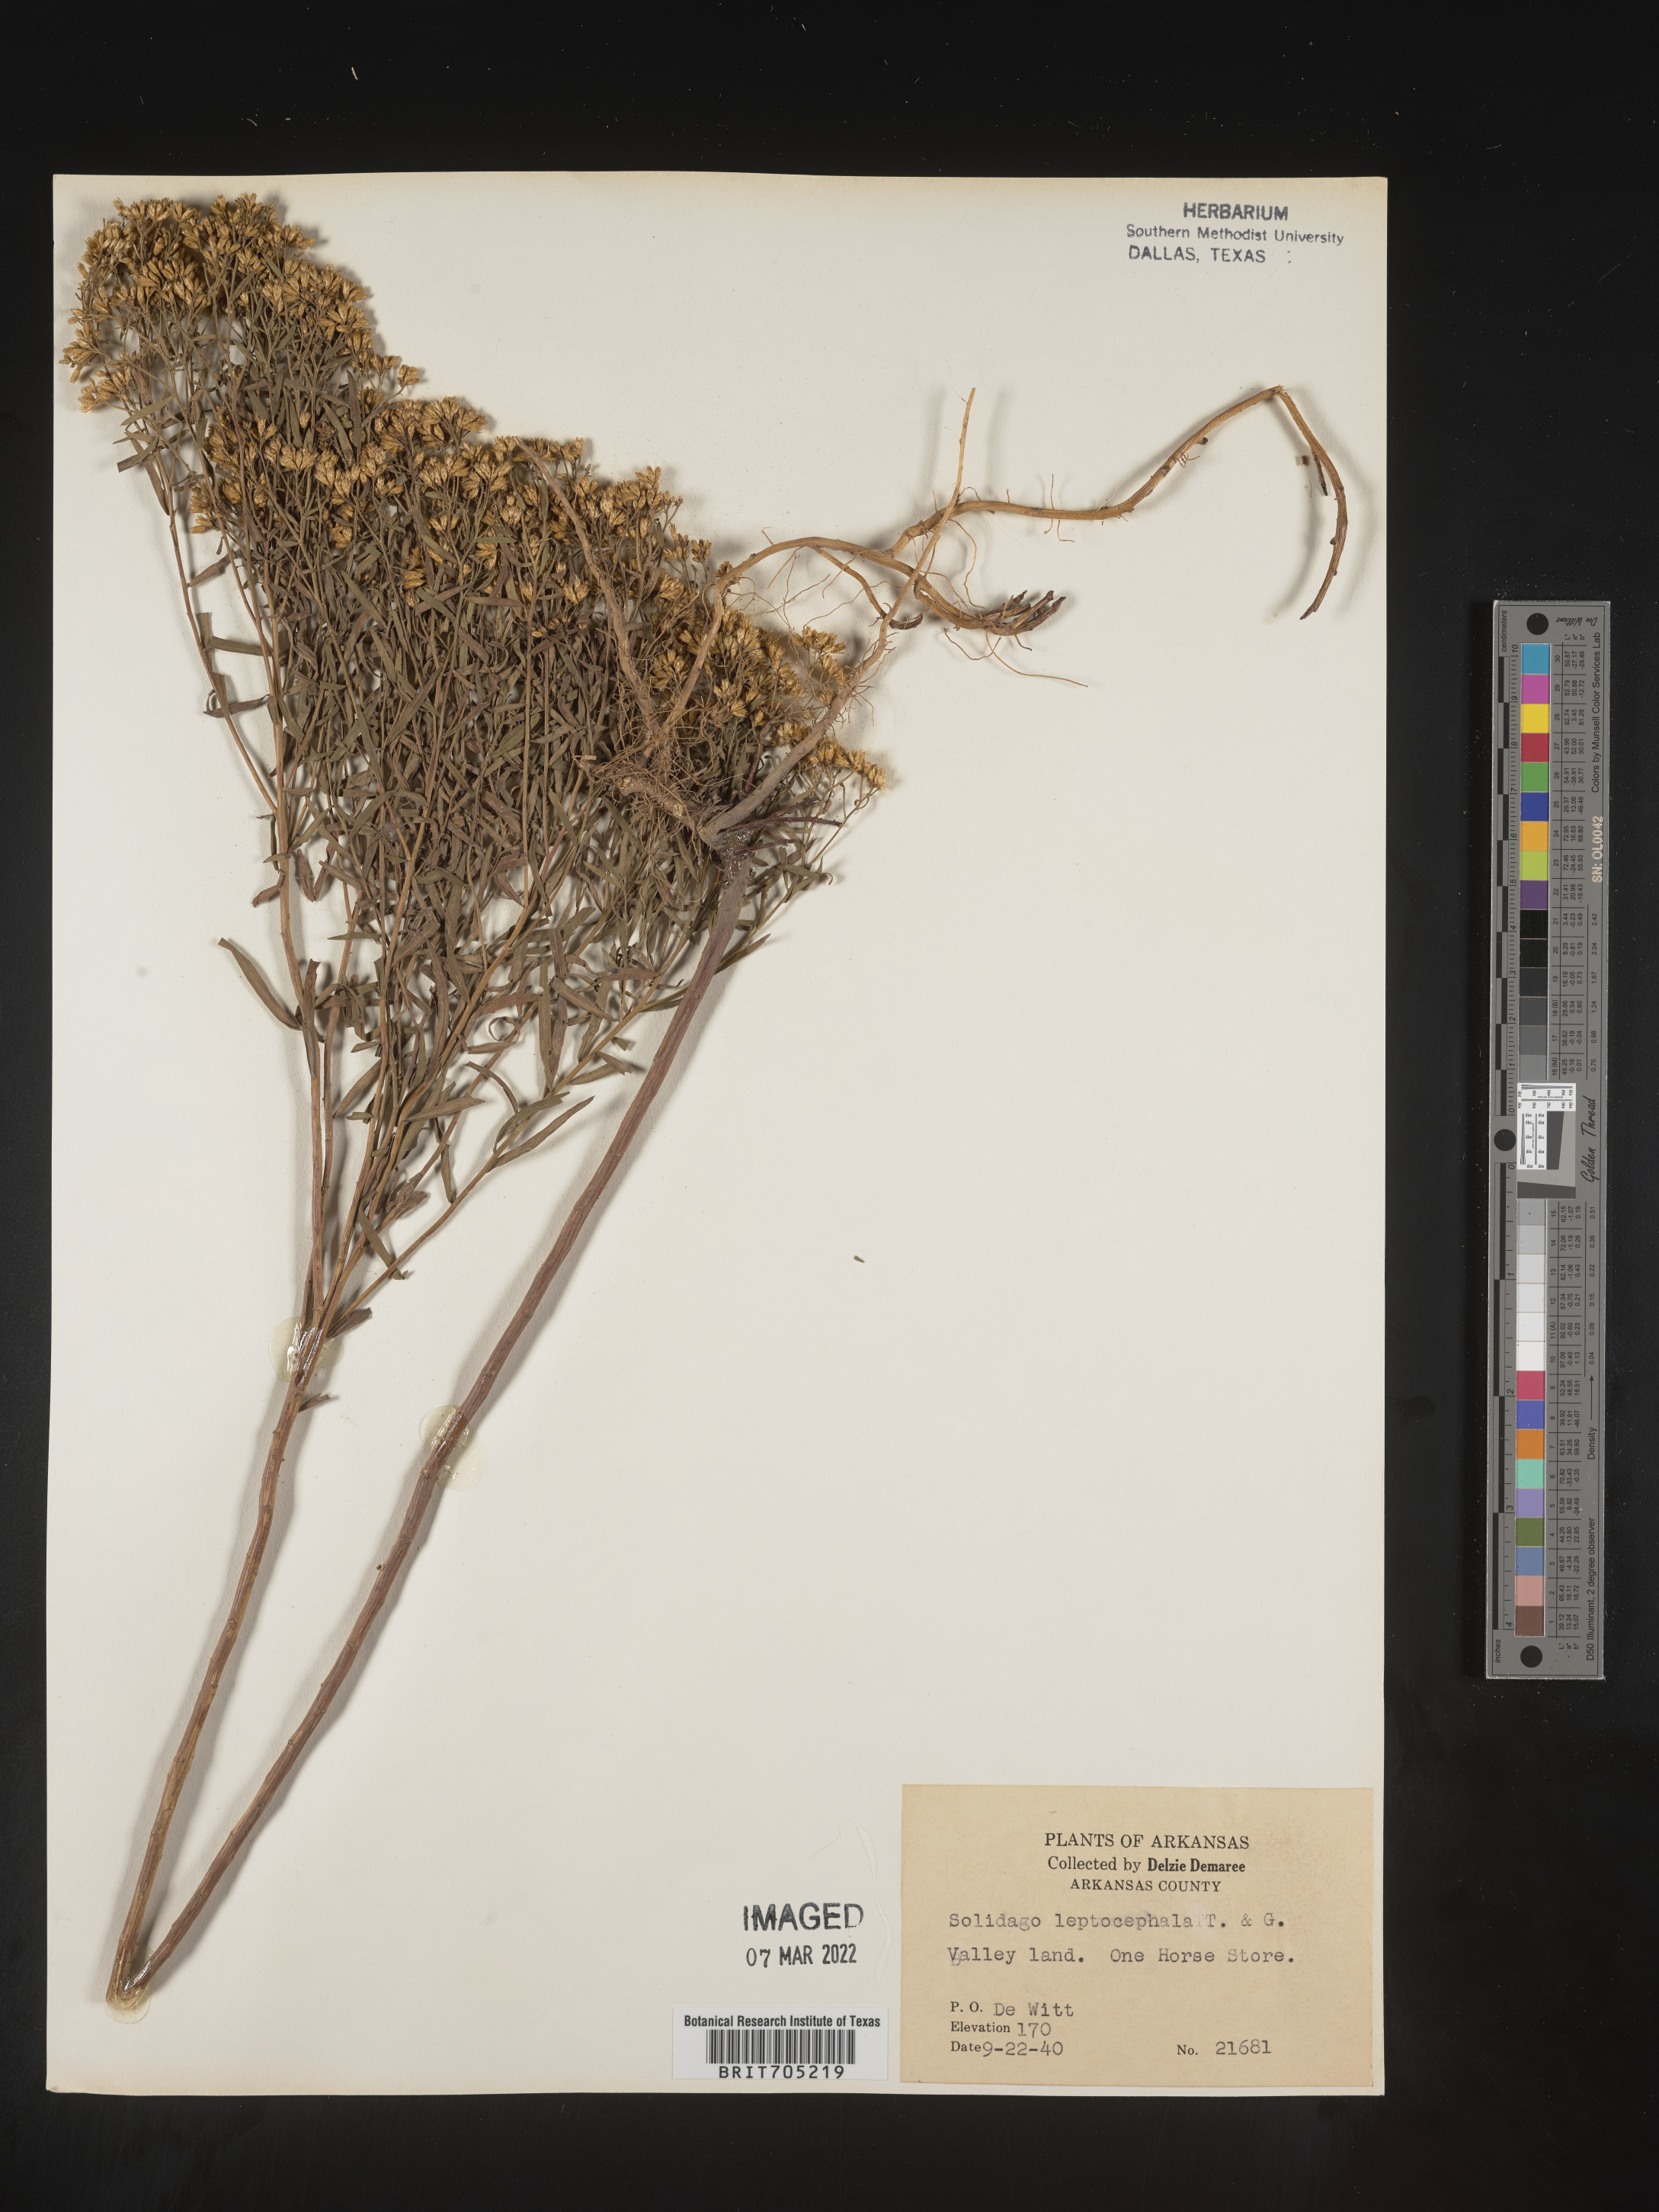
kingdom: Plantae
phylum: Tracheophyta
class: Magnoliopsida
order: Asterales
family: Asteraceae
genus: Euthamia
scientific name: Euthamia leptocephala
